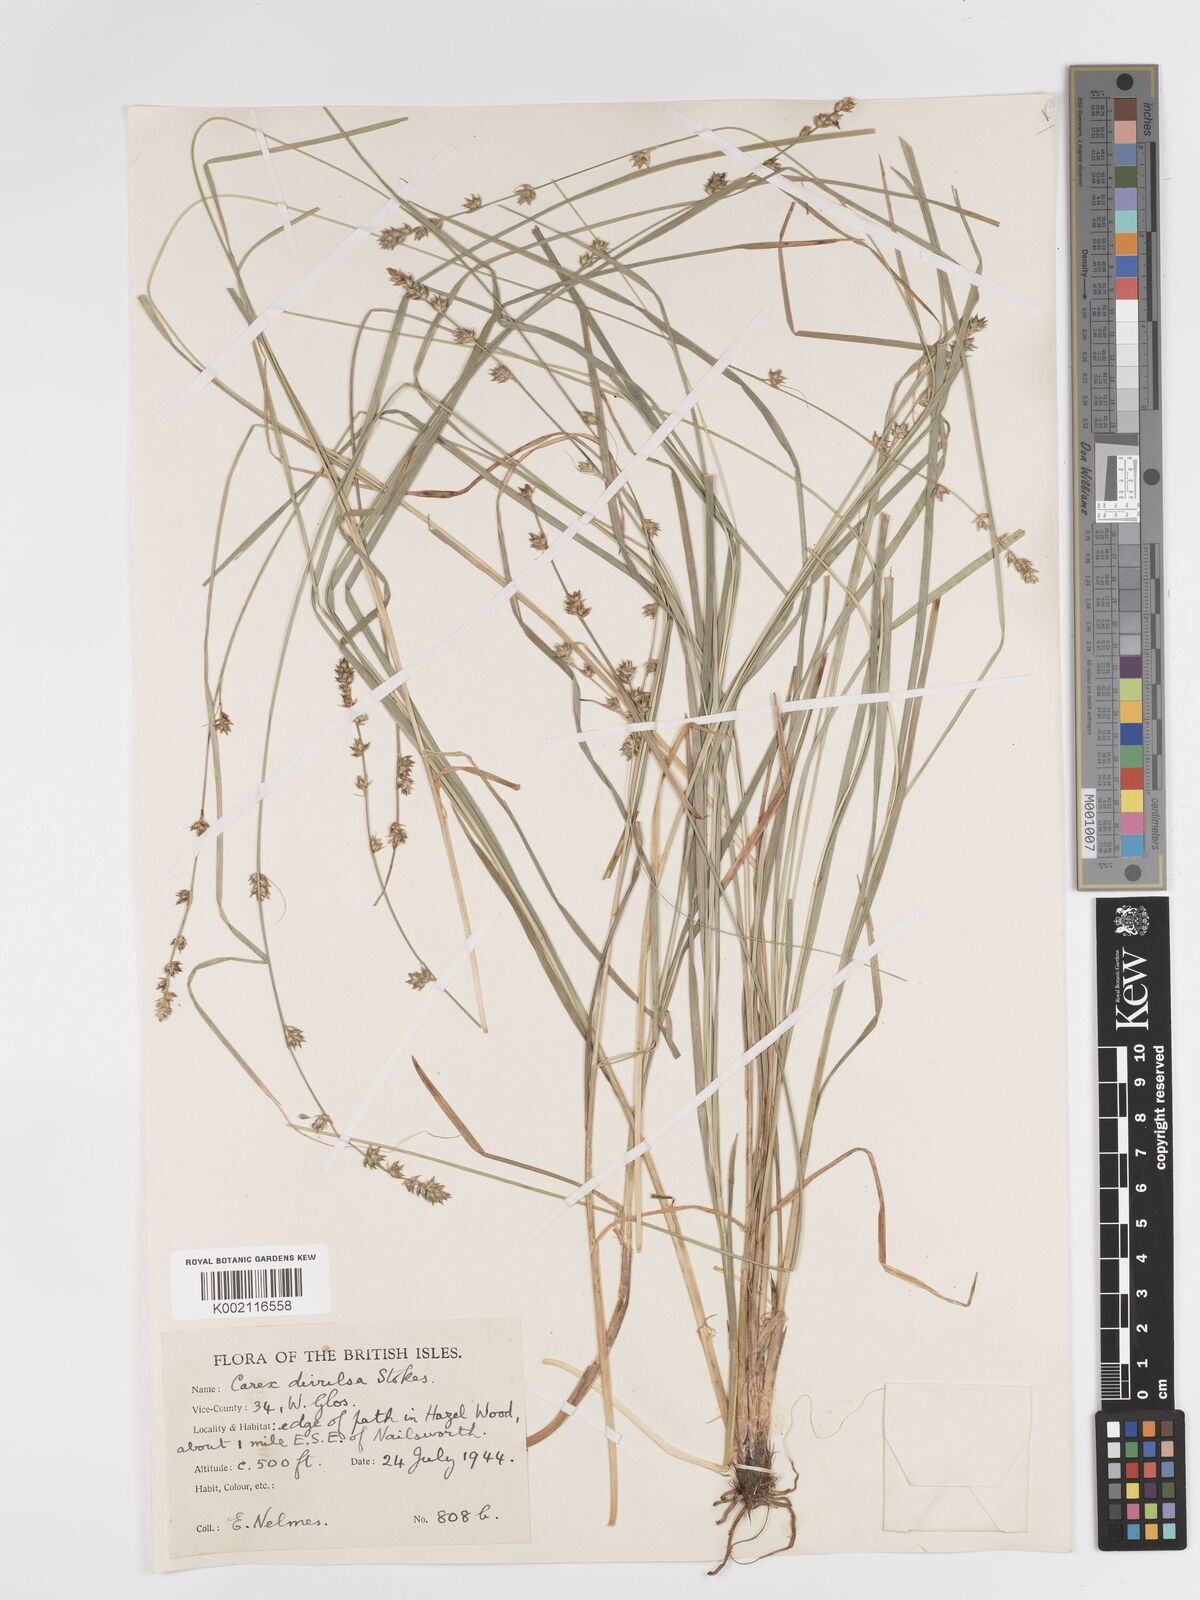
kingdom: Plantae
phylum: Tracheophyta
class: Liliopsida
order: Poales
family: Cyperaceae
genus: Carex
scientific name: Carex divulsa
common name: Grassland sedge
